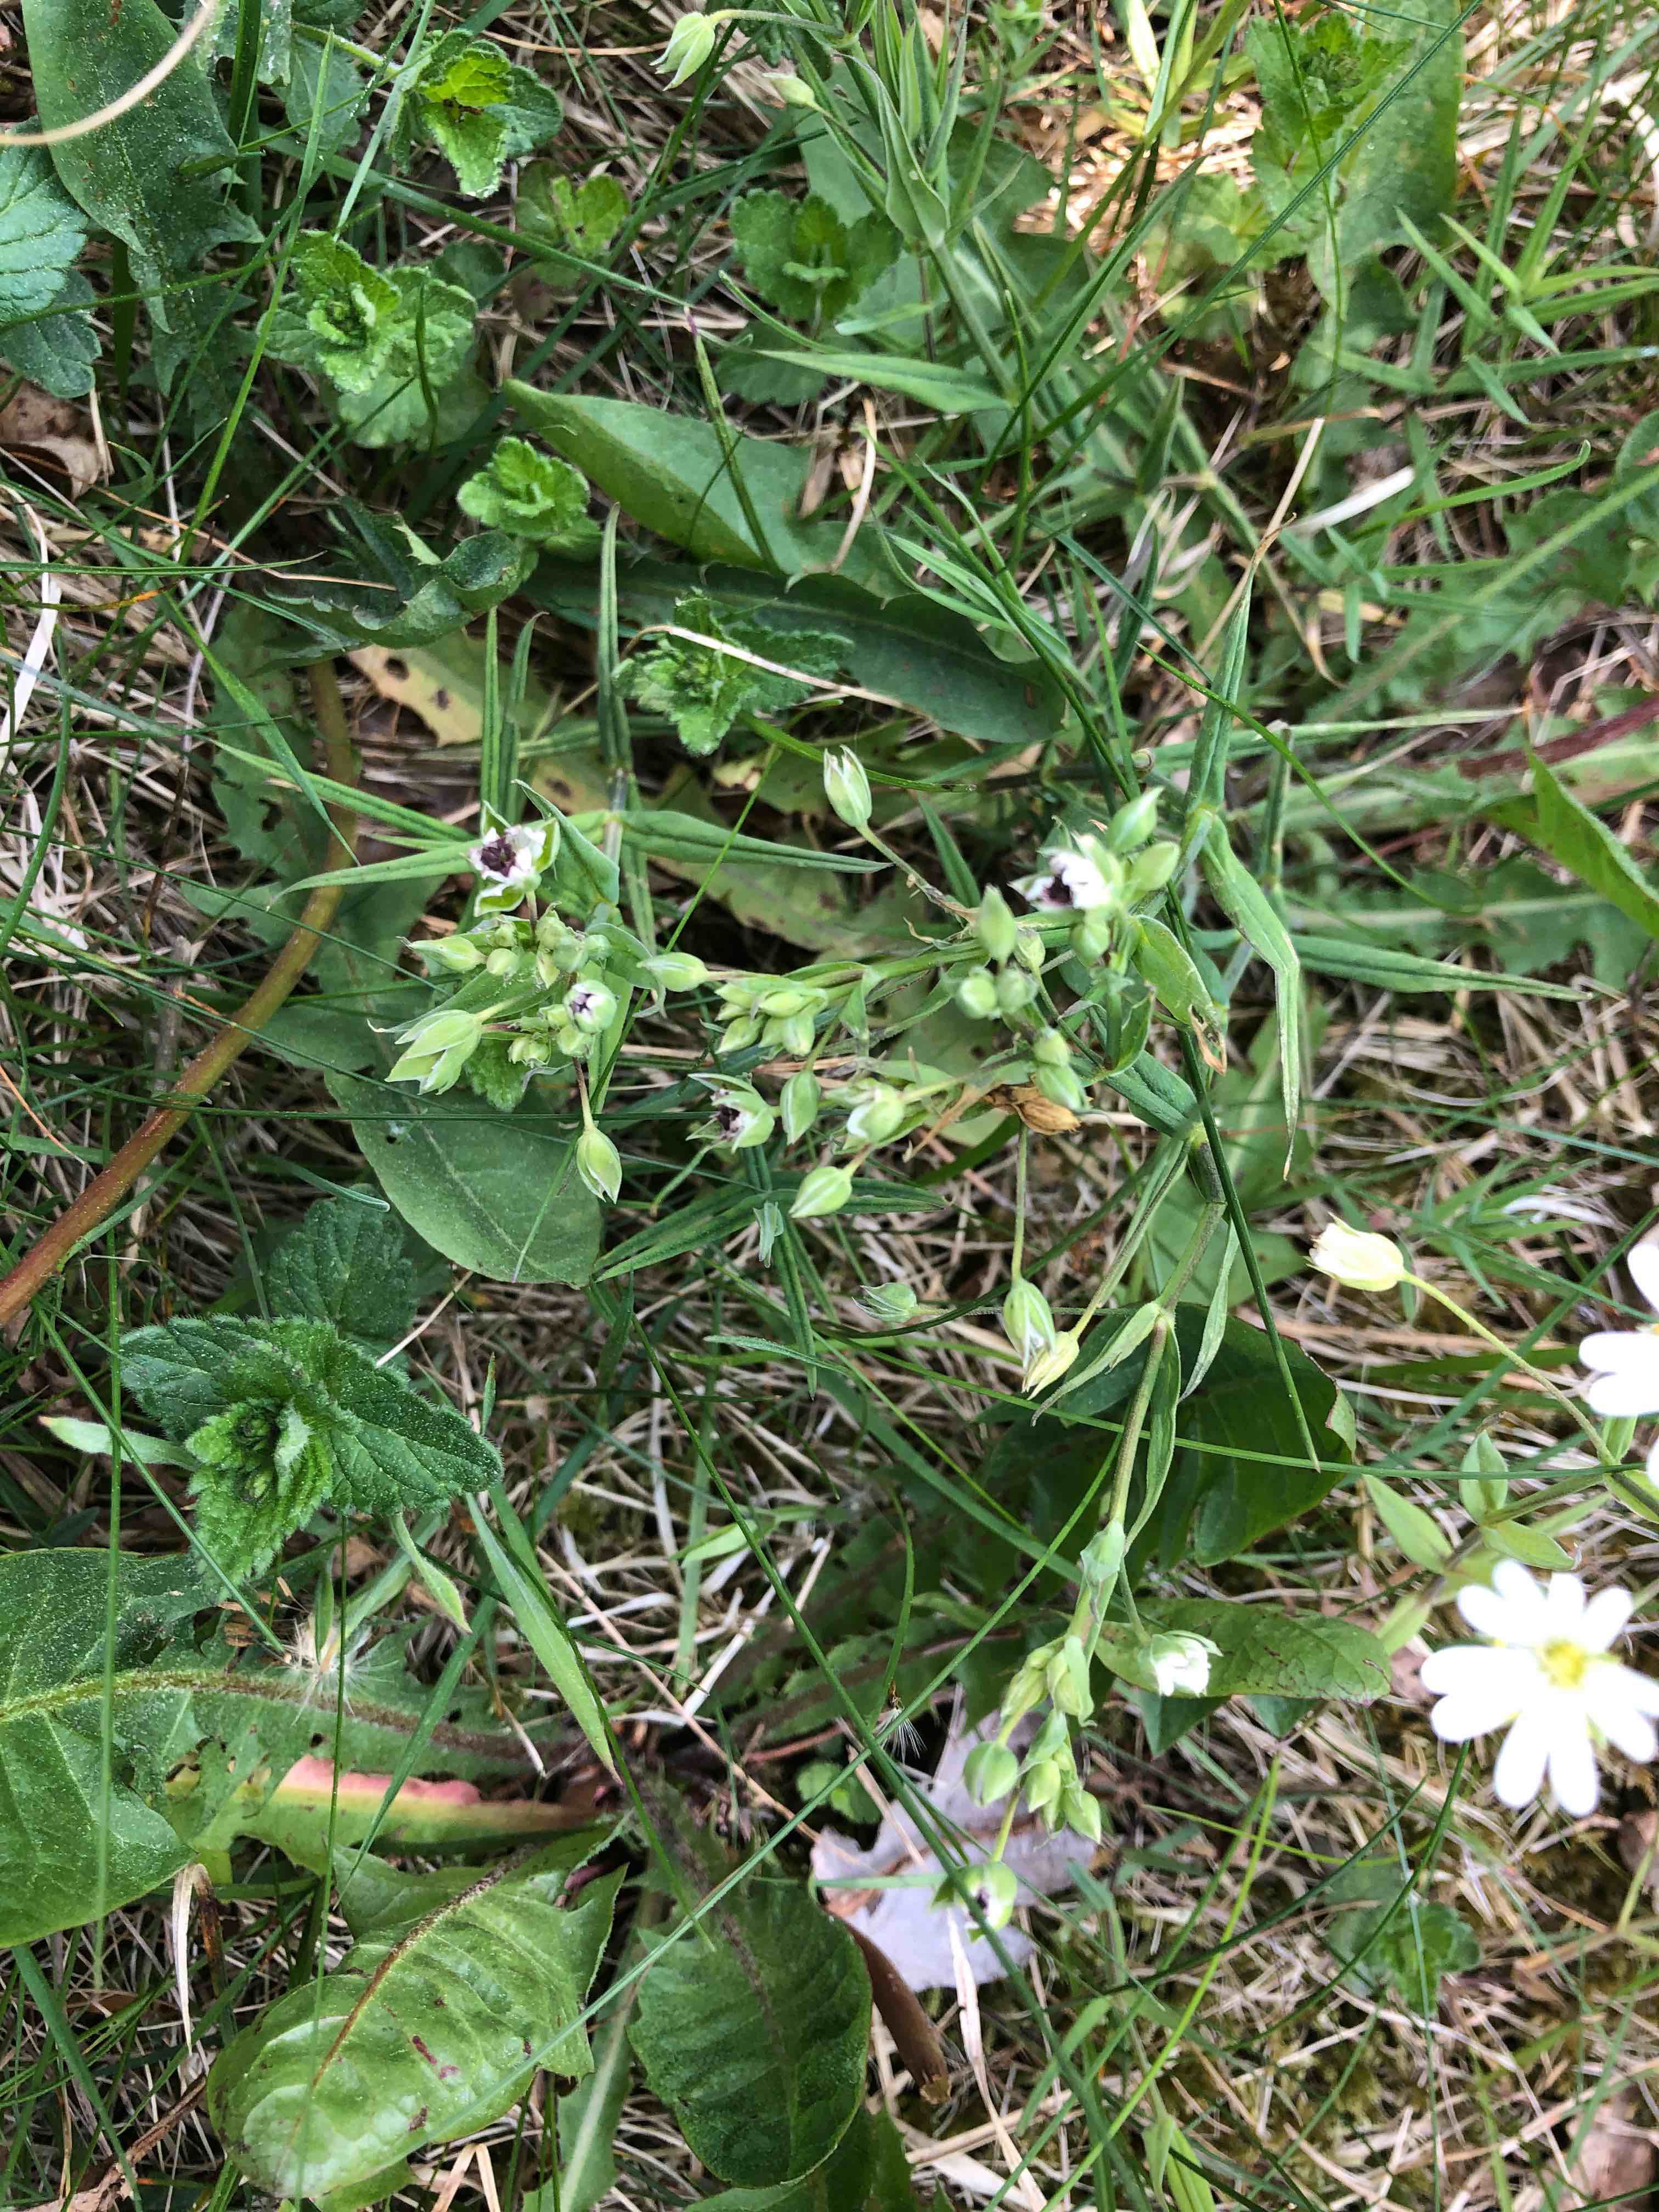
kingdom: Fungi
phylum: Basidiomycota
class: Microbotryomycetes
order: Microbotryales
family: Microbotryaceae
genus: Microbotryum
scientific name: Microbotryum stellariae
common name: fladstjerne-støvbladrust
